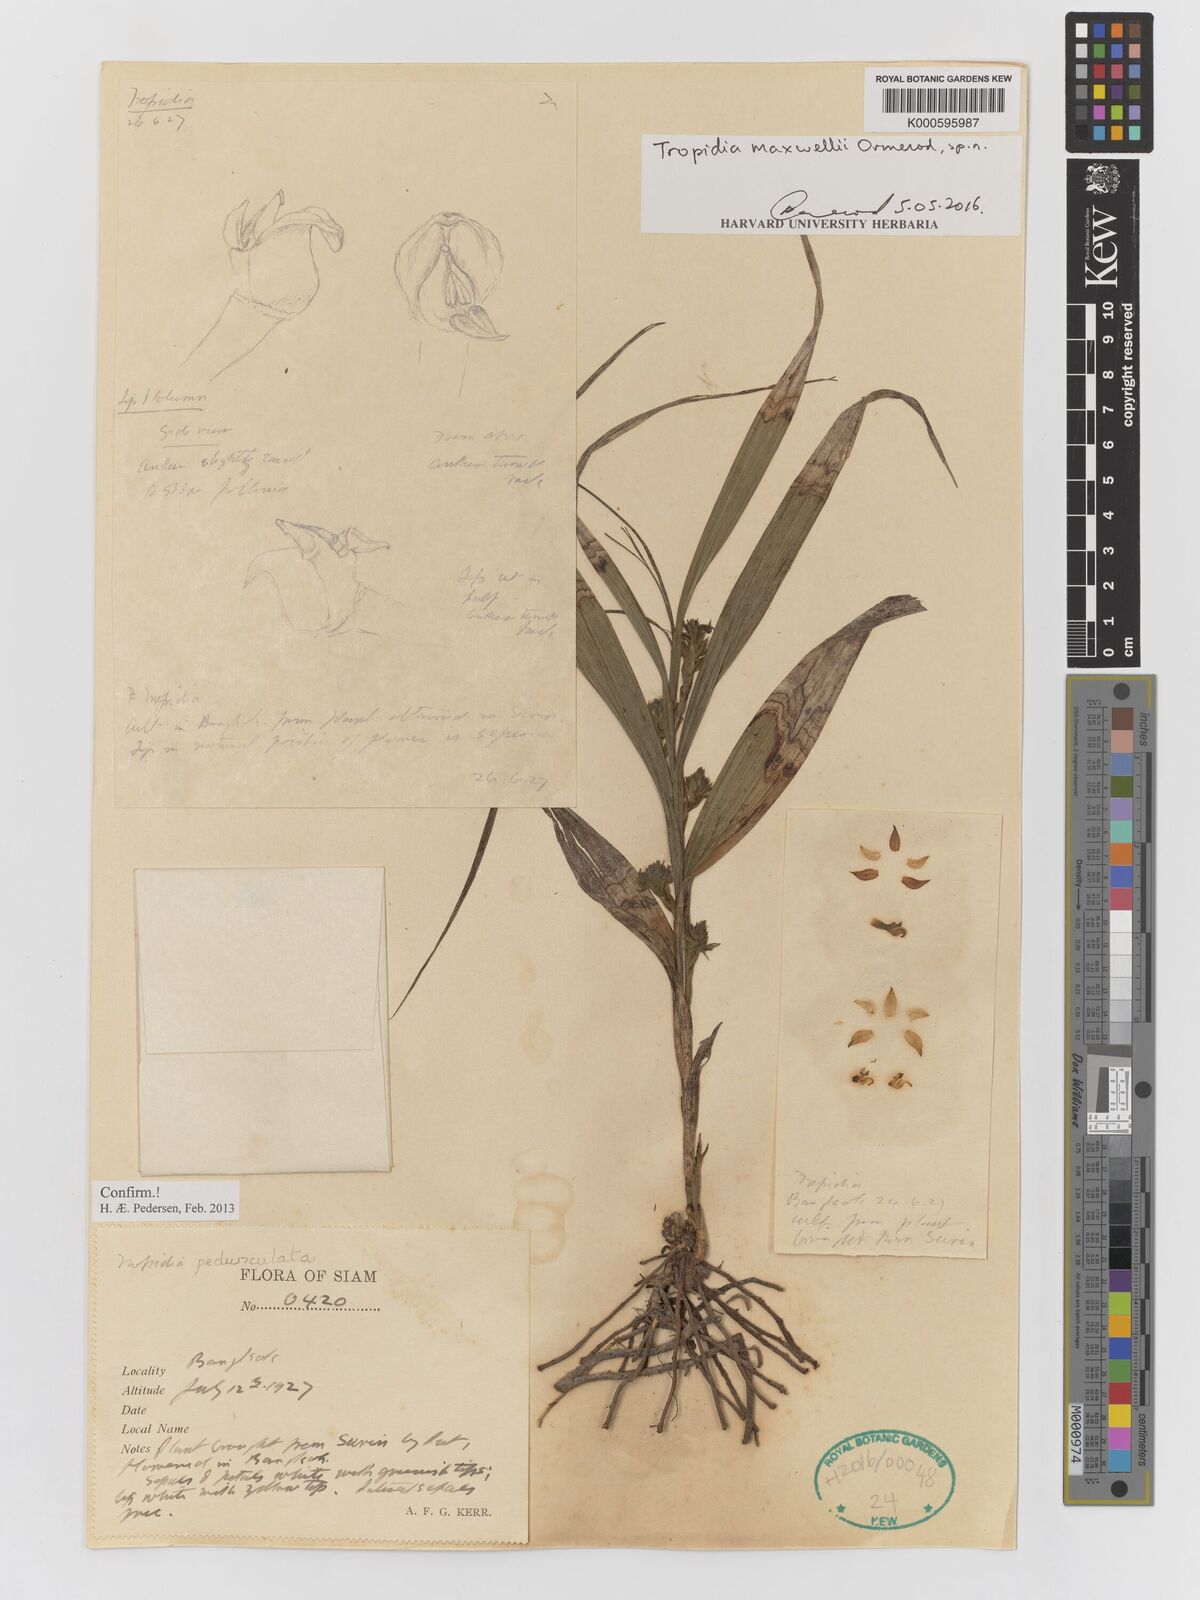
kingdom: Plantae
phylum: Tracheophyta
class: Liliopsida
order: Asparagales
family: Orchidaceae
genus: Tropidia
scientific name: Tropidia pedunculata
